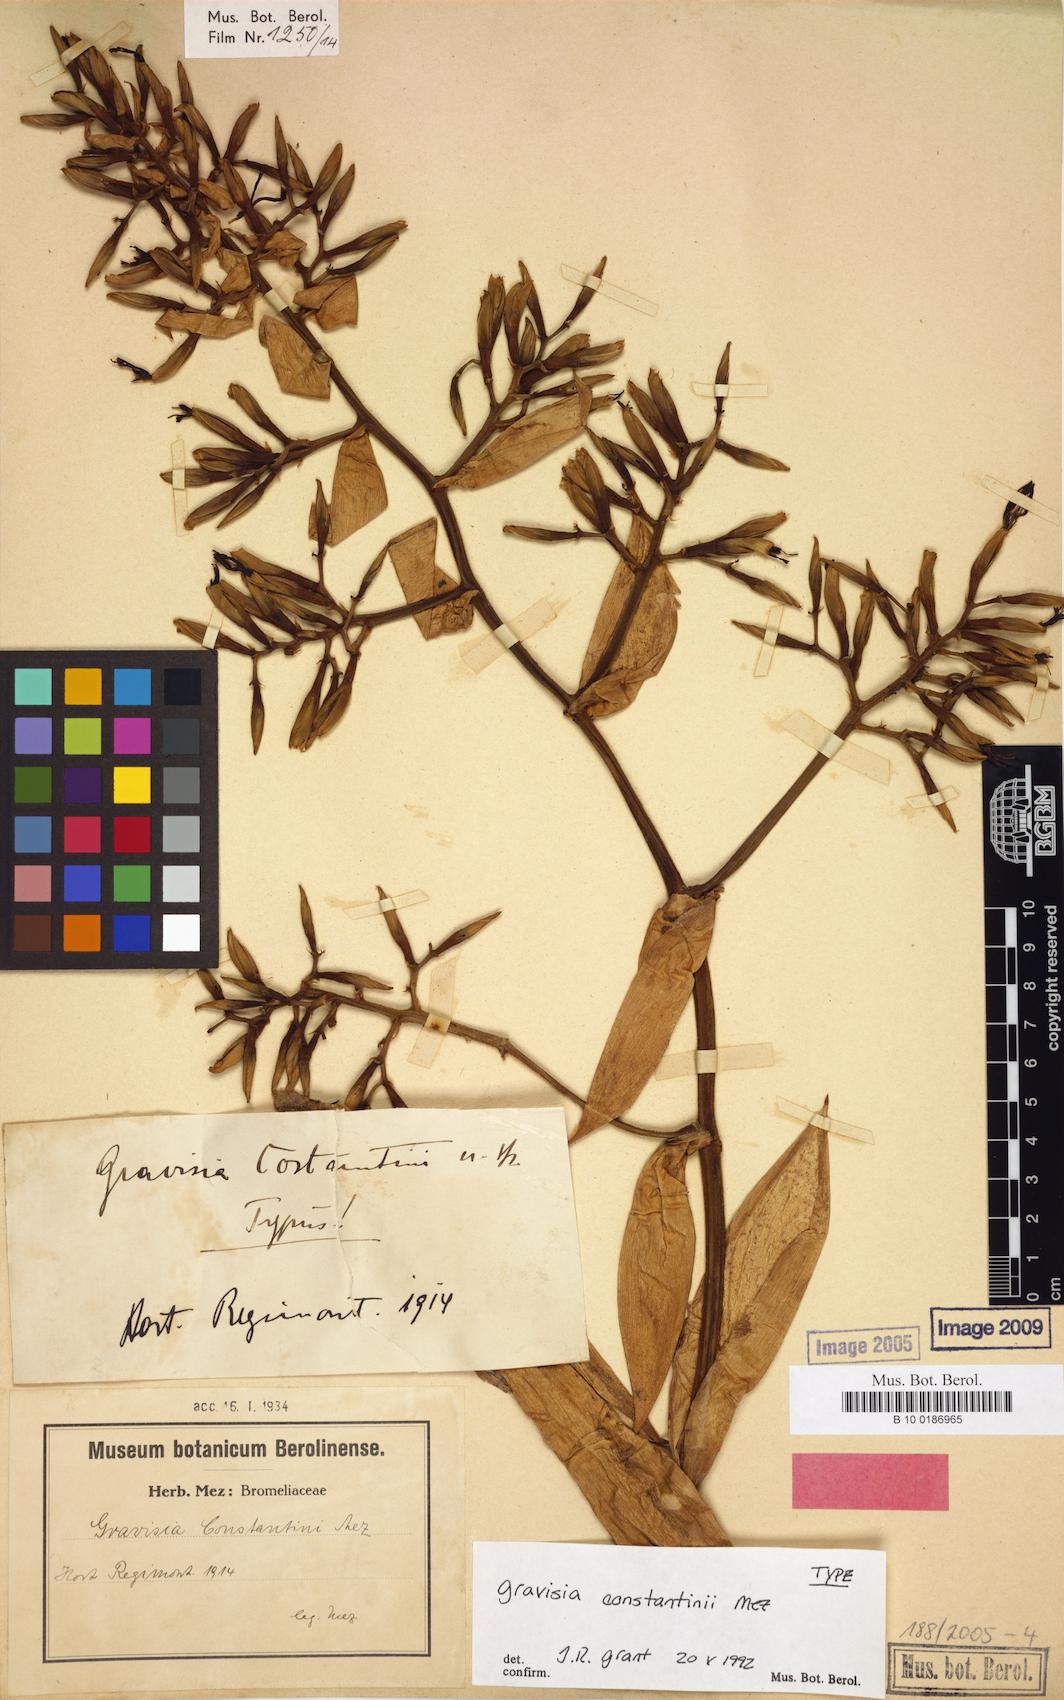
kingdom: Plantae
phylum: Tracheophyta
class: Liliopsida
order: Poales
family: Bromeliaceae
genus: Aechmea
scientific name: Aechmea costantinii
